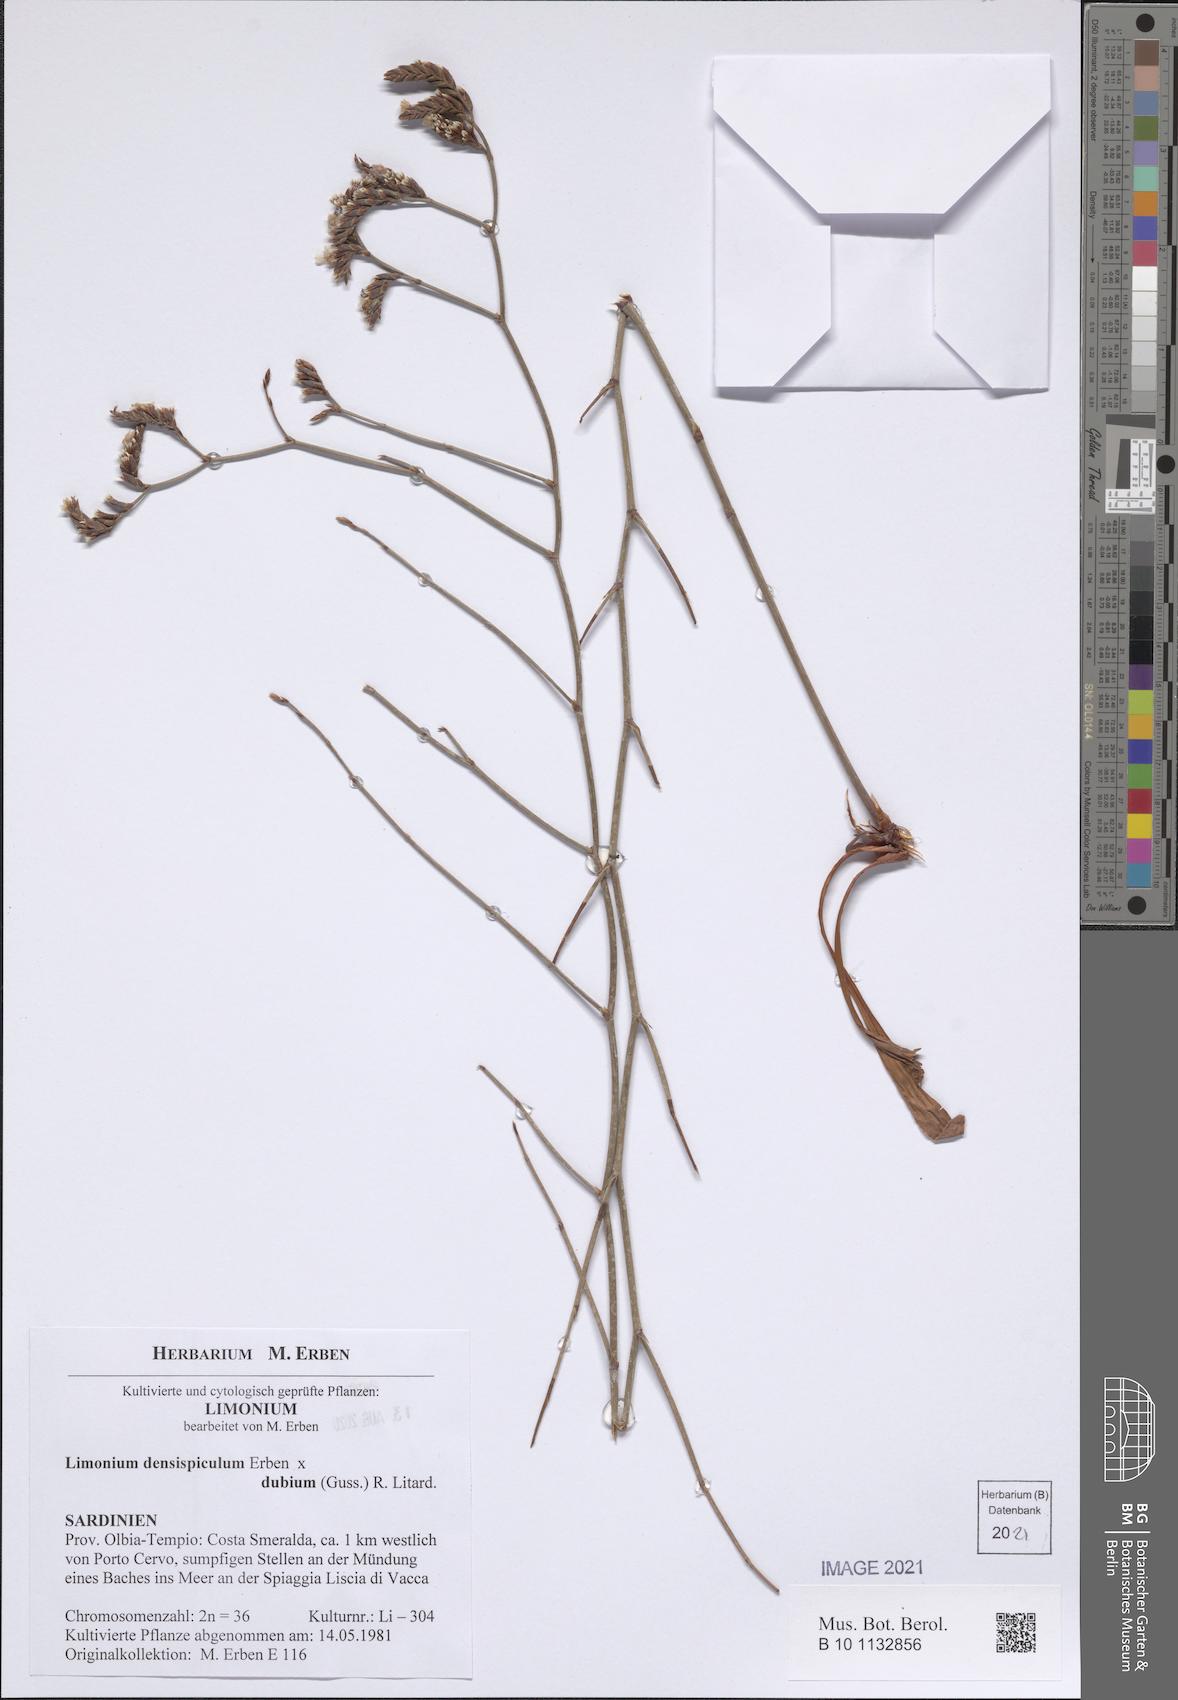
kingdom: Plantae
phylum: Tracheophyta
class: Magnoliopsida
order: Caryophyllales
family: Plumbaginaceae
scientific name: Plumbaginaceae
